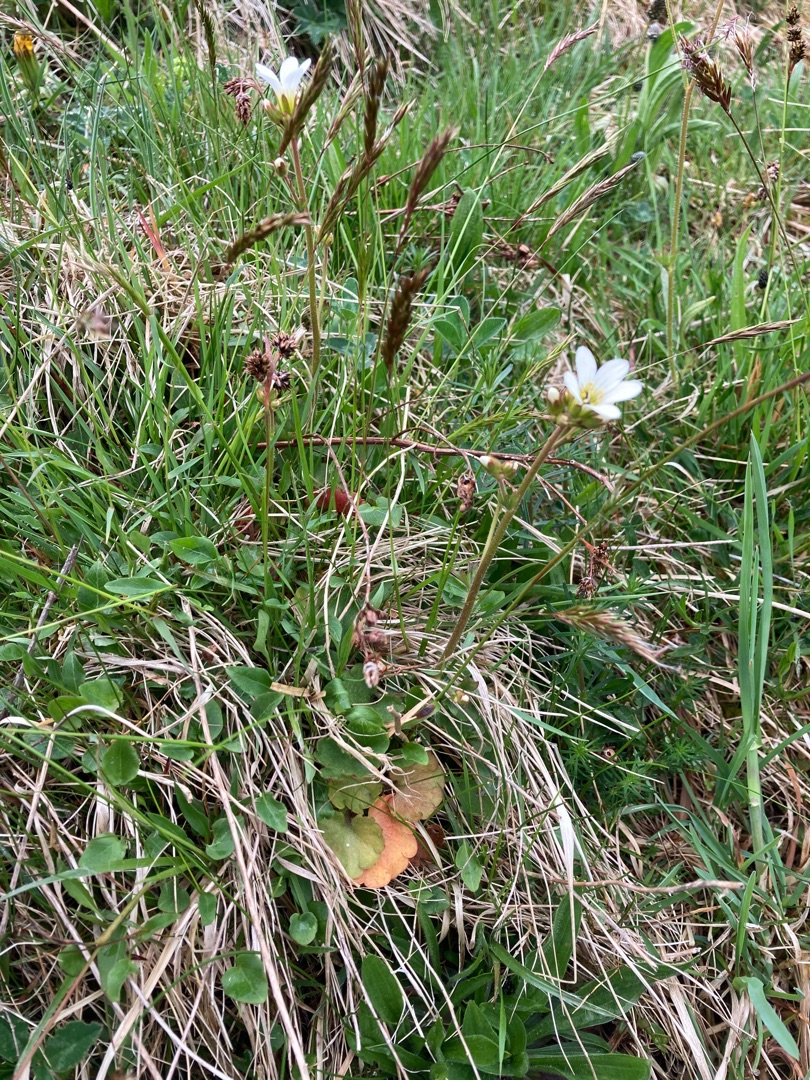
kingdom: Plantae
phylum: Tracheophyta
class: Magnoliopsida
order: Saxifragales
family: Saxifragaceae
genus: Saxifraga
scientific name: Saxifraga granulata
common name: Kornet stenbræk
